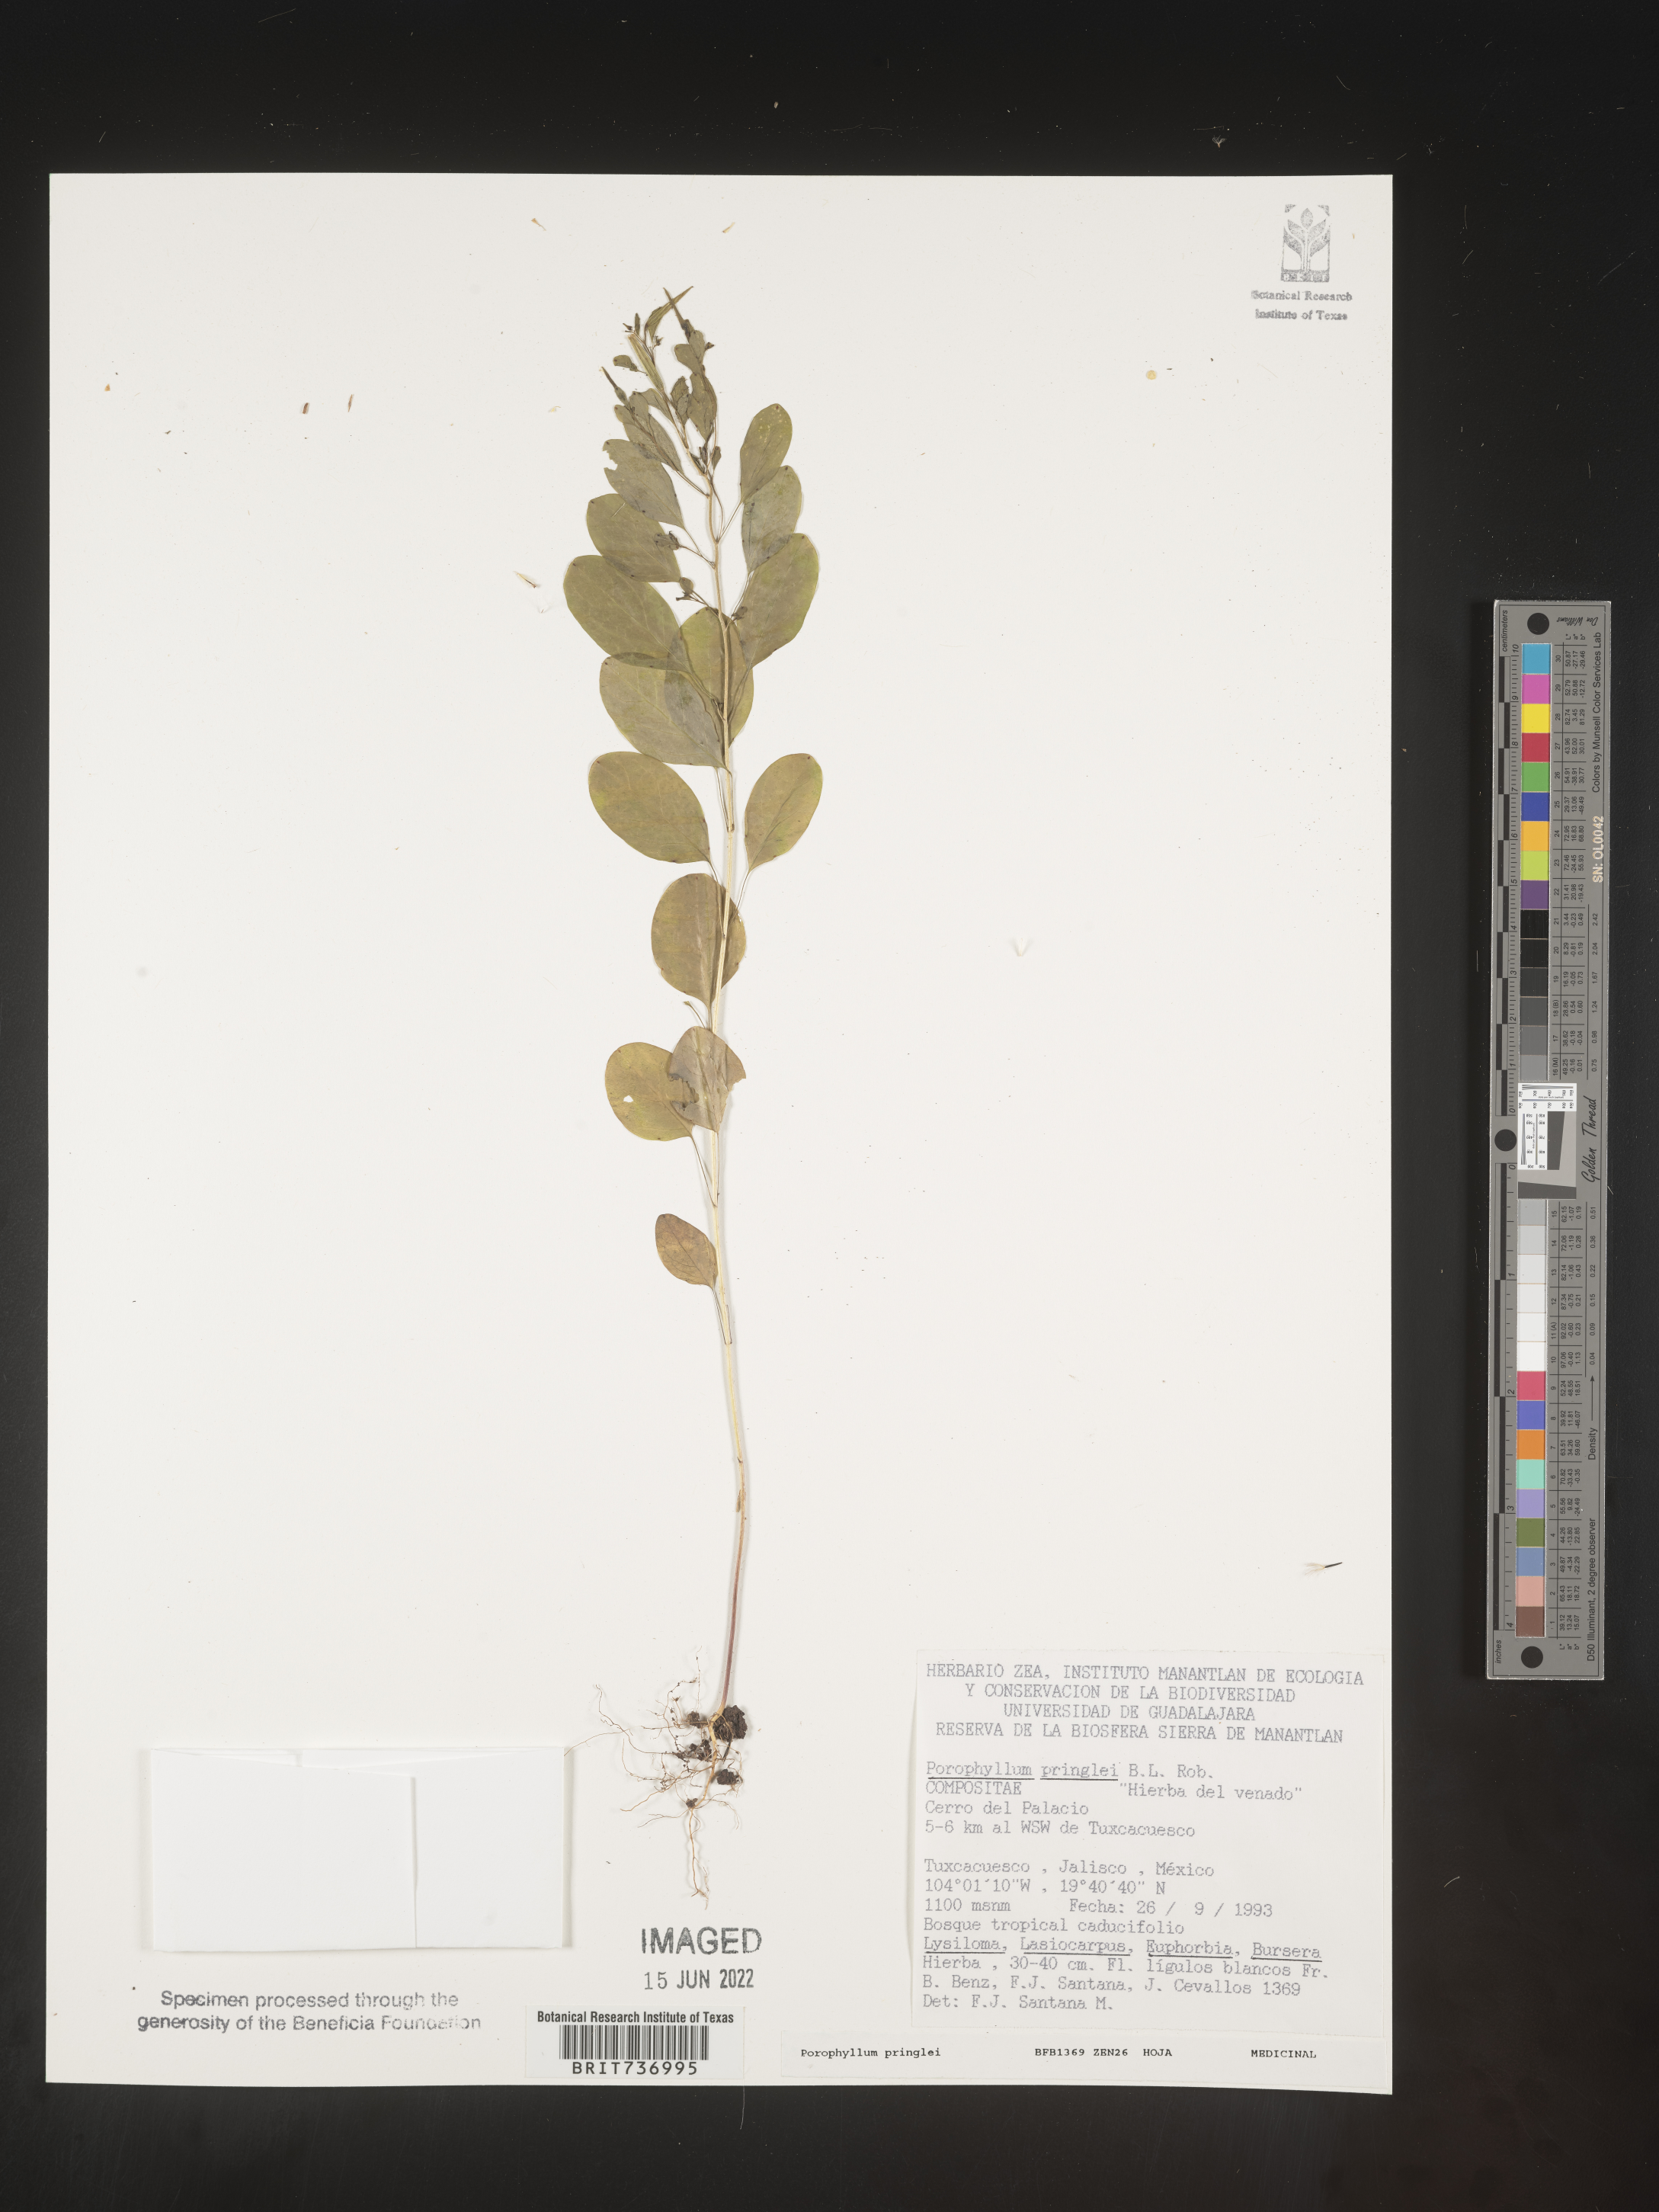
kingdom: Plantae
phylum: Tracheophyta
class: Magnoliopsida
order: Asterales
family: Asteraceae
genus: Porophyllum
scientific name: Porophyllum
